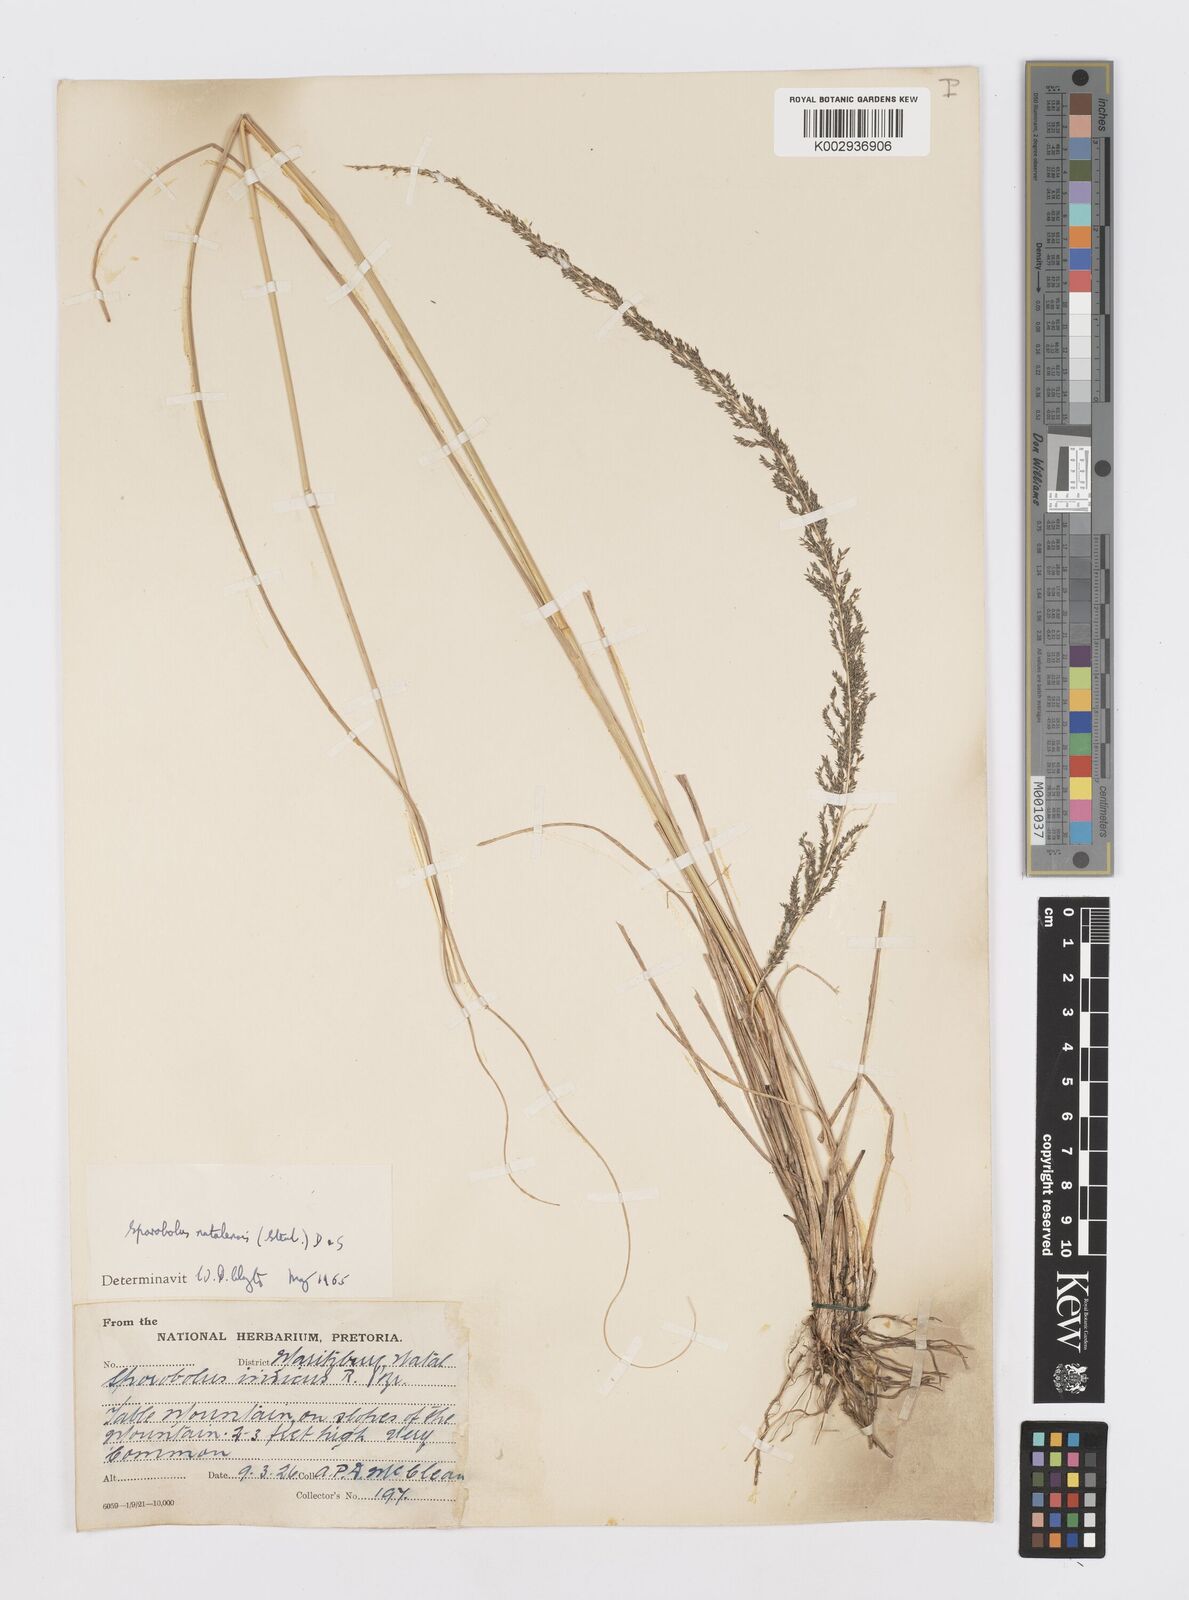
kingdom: Plantae
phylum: Tracheophyta
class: Liliopsida
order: Poales
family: Poaceae
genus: Sporobolus
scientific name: Sporobolus natalensis
